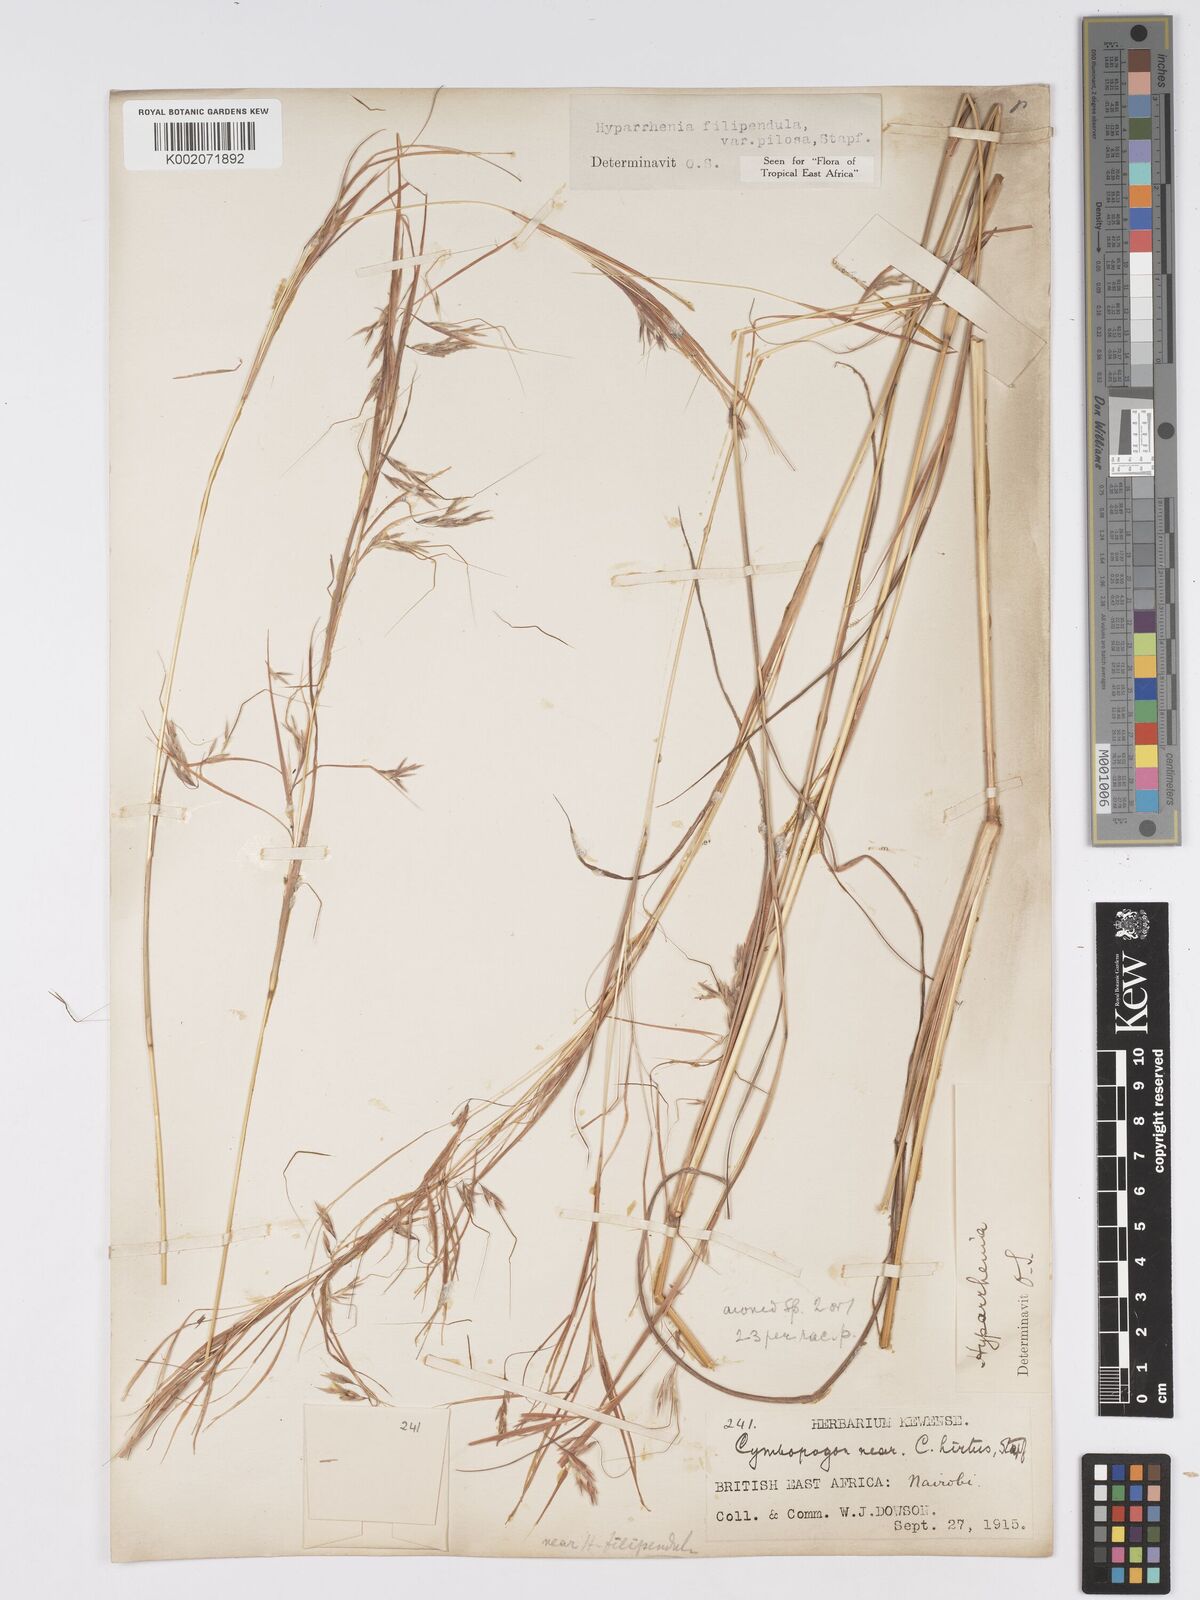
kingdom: Plantae
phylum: Tracheophyta
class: Liliopsida
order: Poales
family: Poaceae
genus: Hyparrhenia
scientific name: Hyparrhenia filipendula
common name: Tambookie grass
